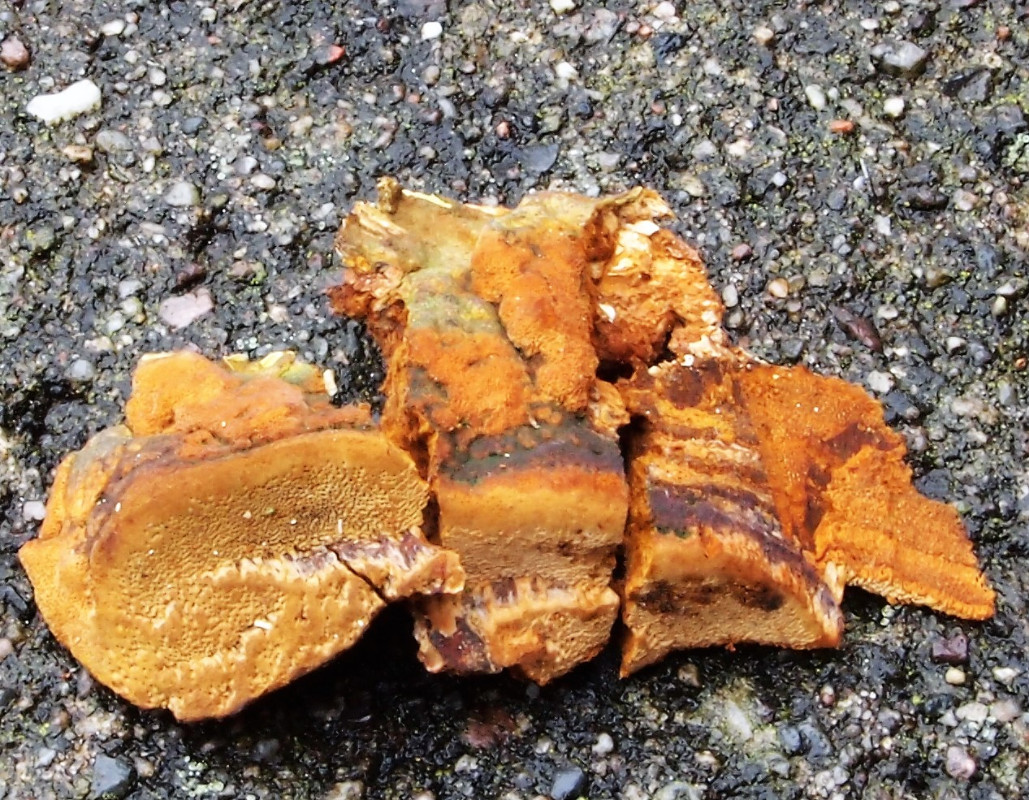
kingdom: Fungi
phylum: Basidiomycota
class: Agaricomycetes
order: Hymenochaetales
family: Hymenochaetaceae
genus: Phellinopsis
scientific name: Phellinopsis conchata
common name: pile-ildporesvamp
